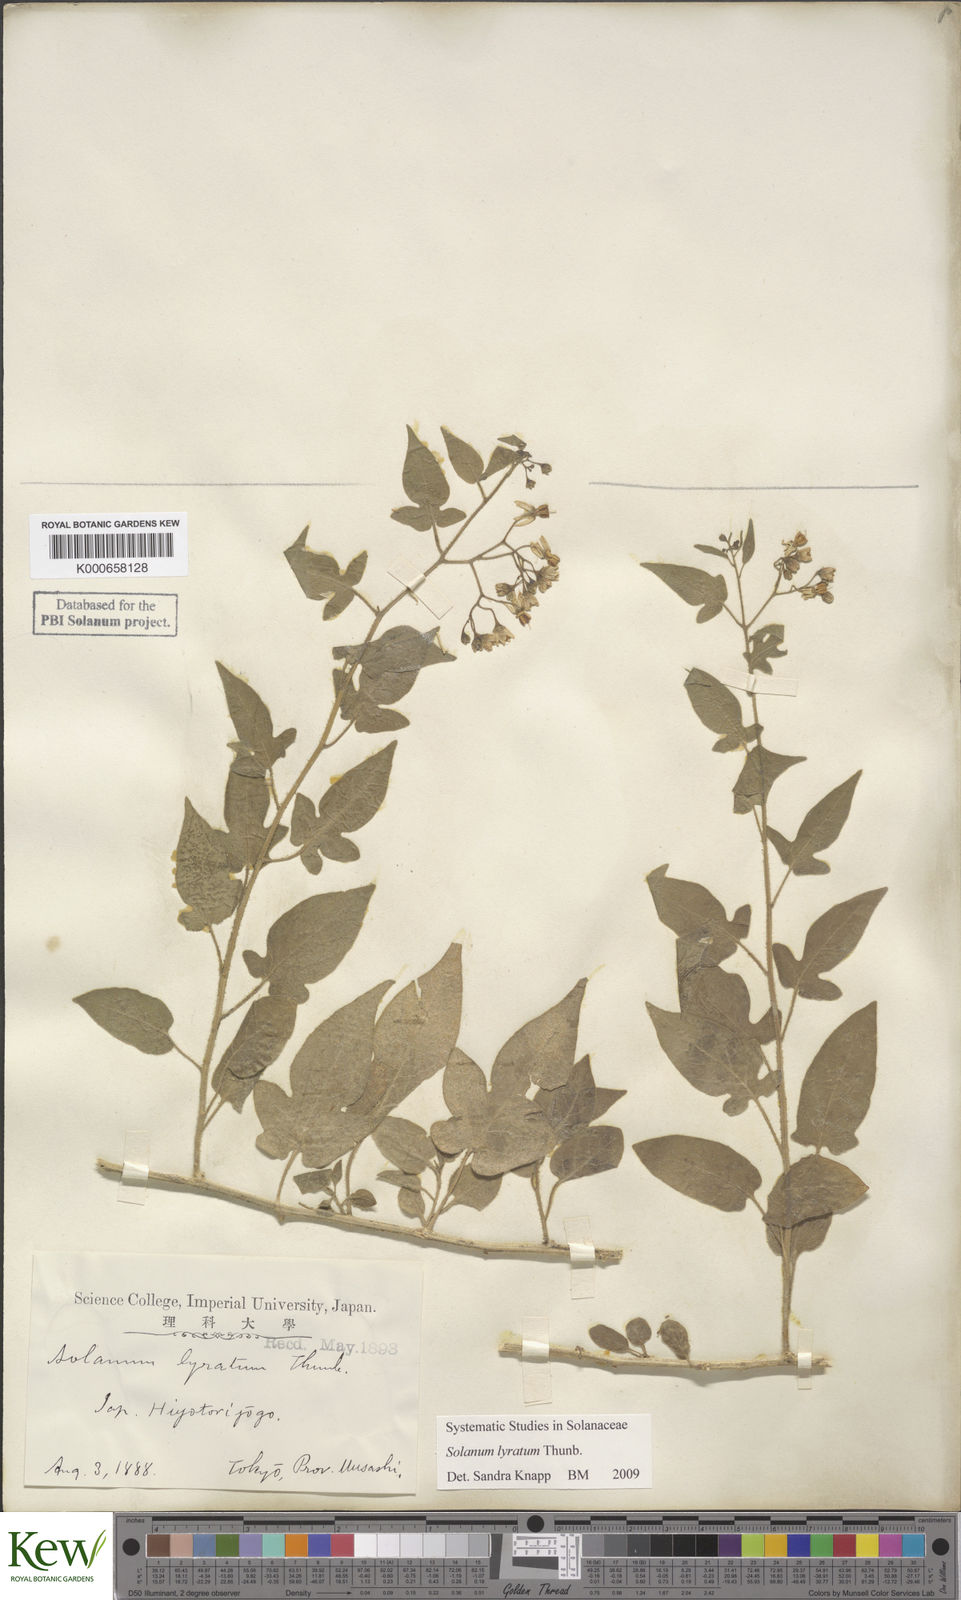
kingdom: Plantae
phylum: Tracheophyta
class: Magnoliopsida
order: Solanales
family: Solanaceae
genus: Solanum
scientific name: Solanum lyratum
